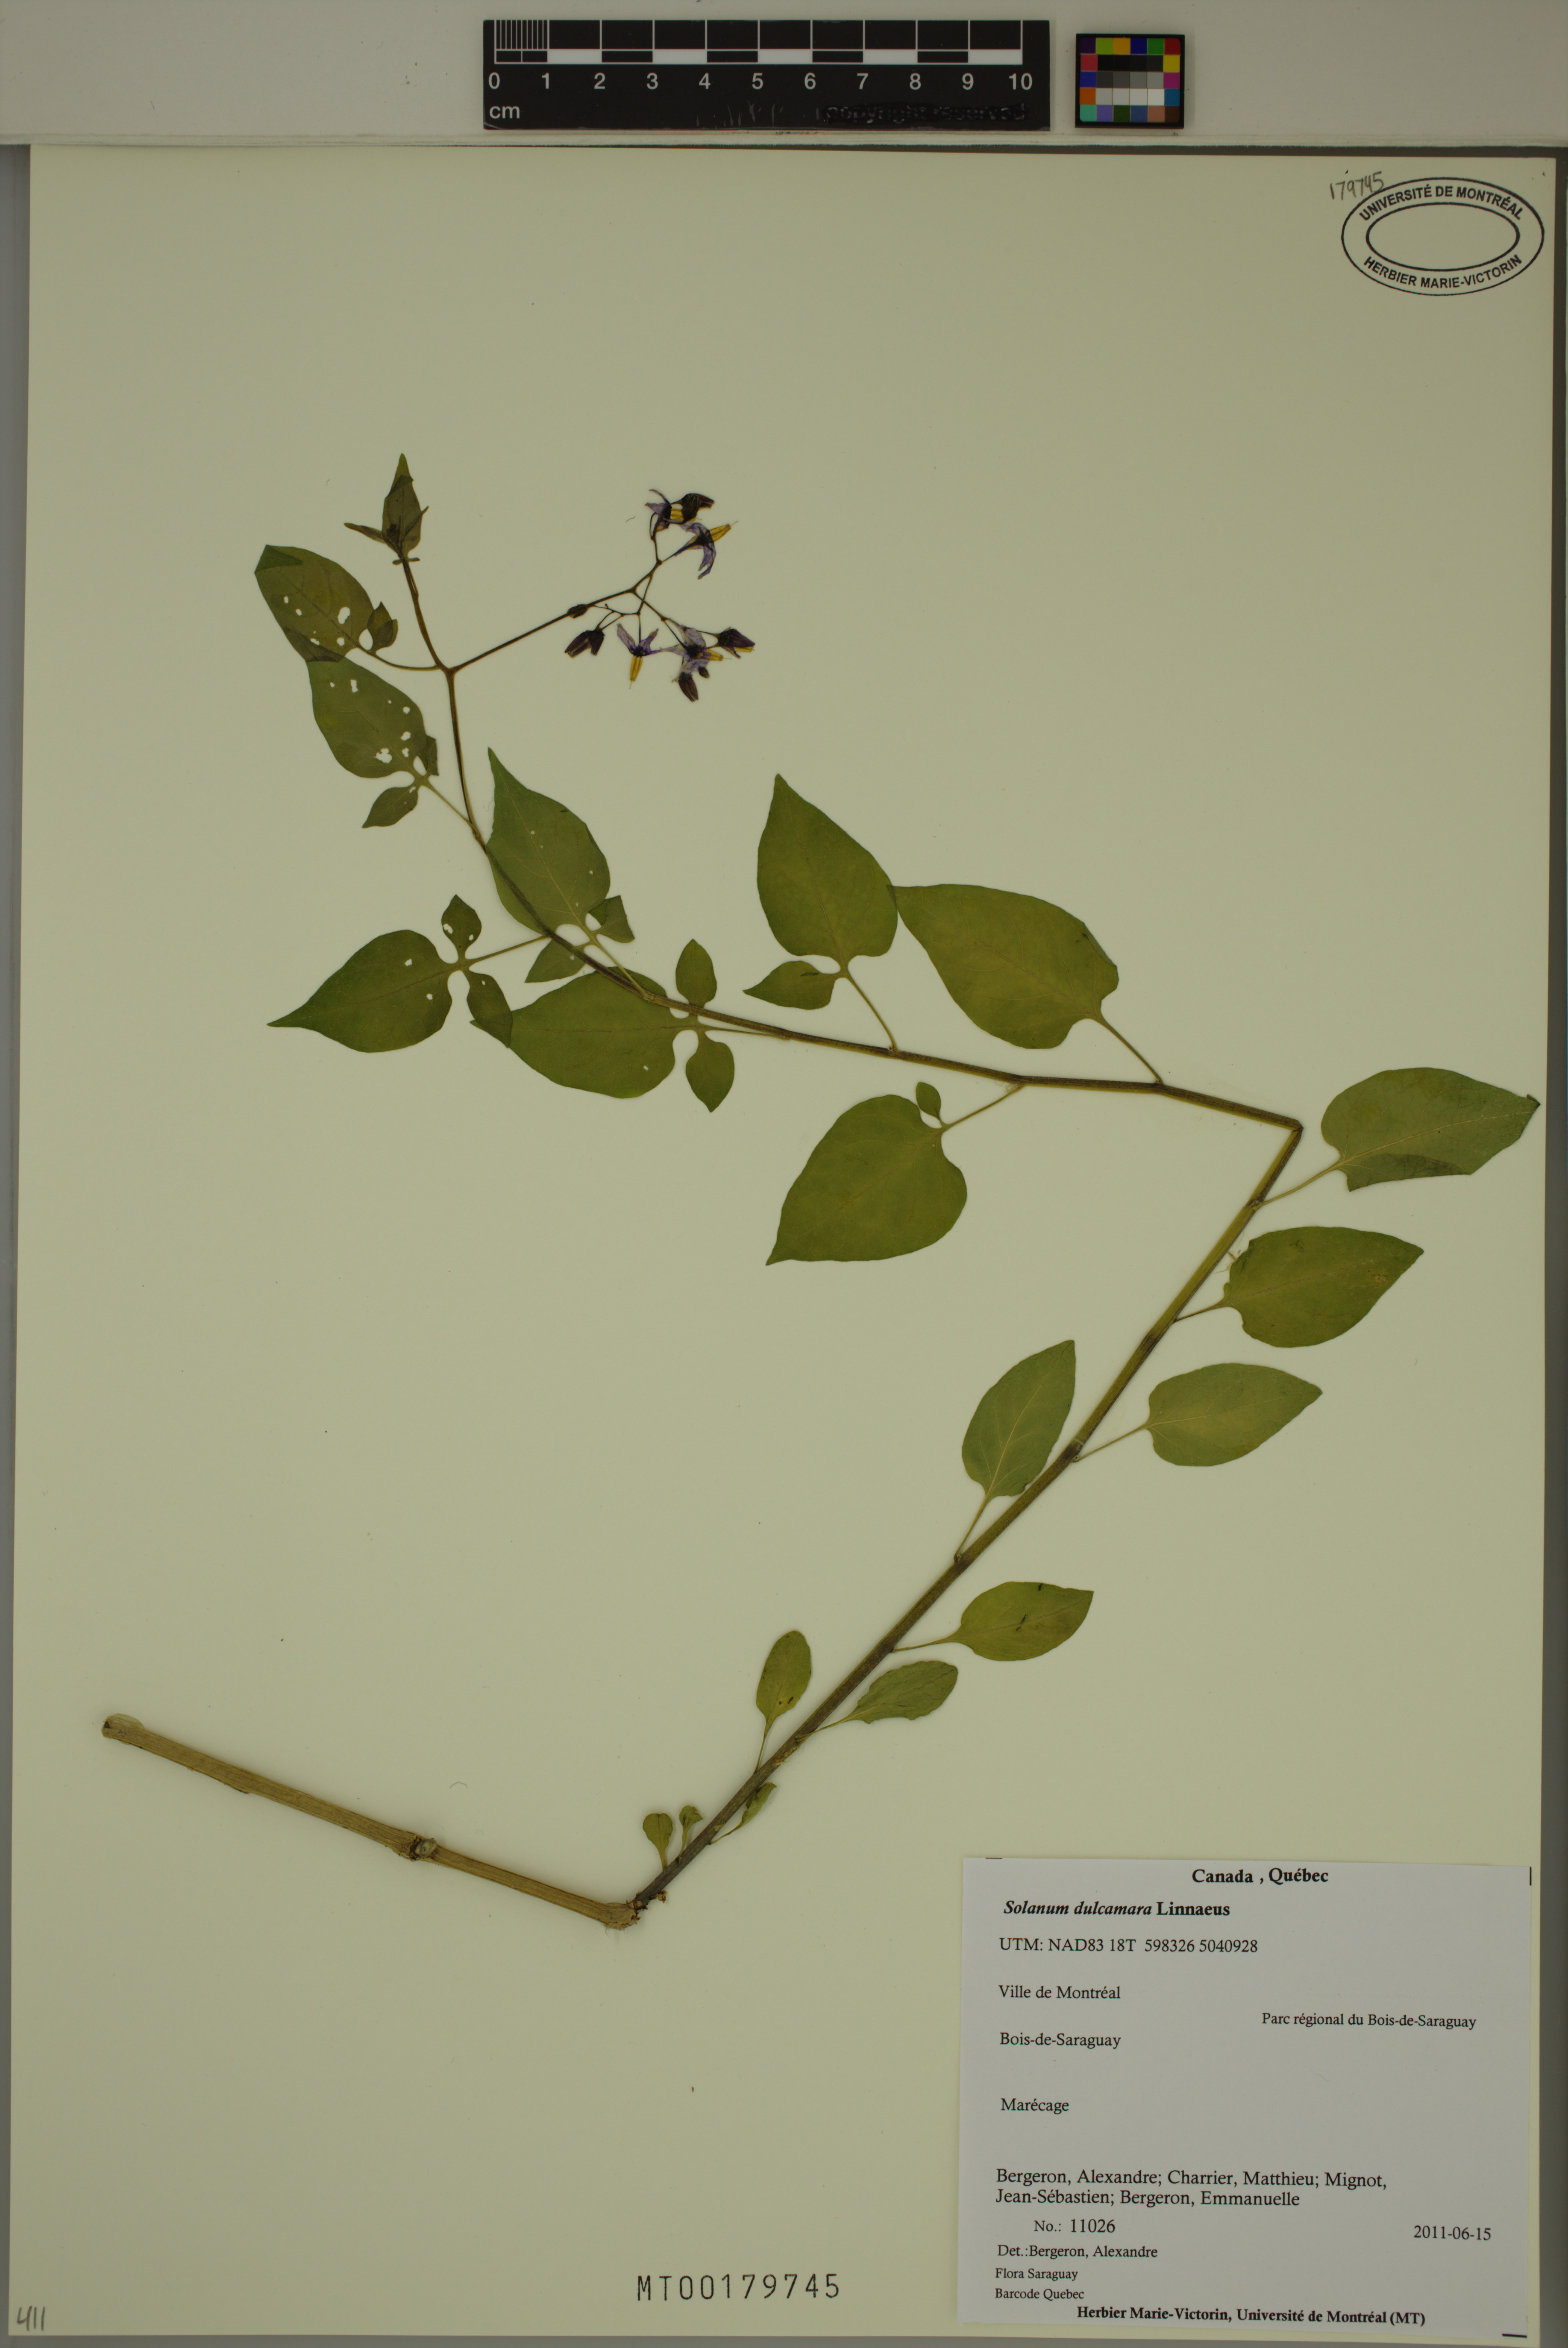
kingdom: Plantae
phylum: Tracheophyta
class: Magnoliopsida
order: Solanales
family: Solanaceae
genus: Solanum
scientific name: Solanum dulcamara
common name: Climbing nightshade
